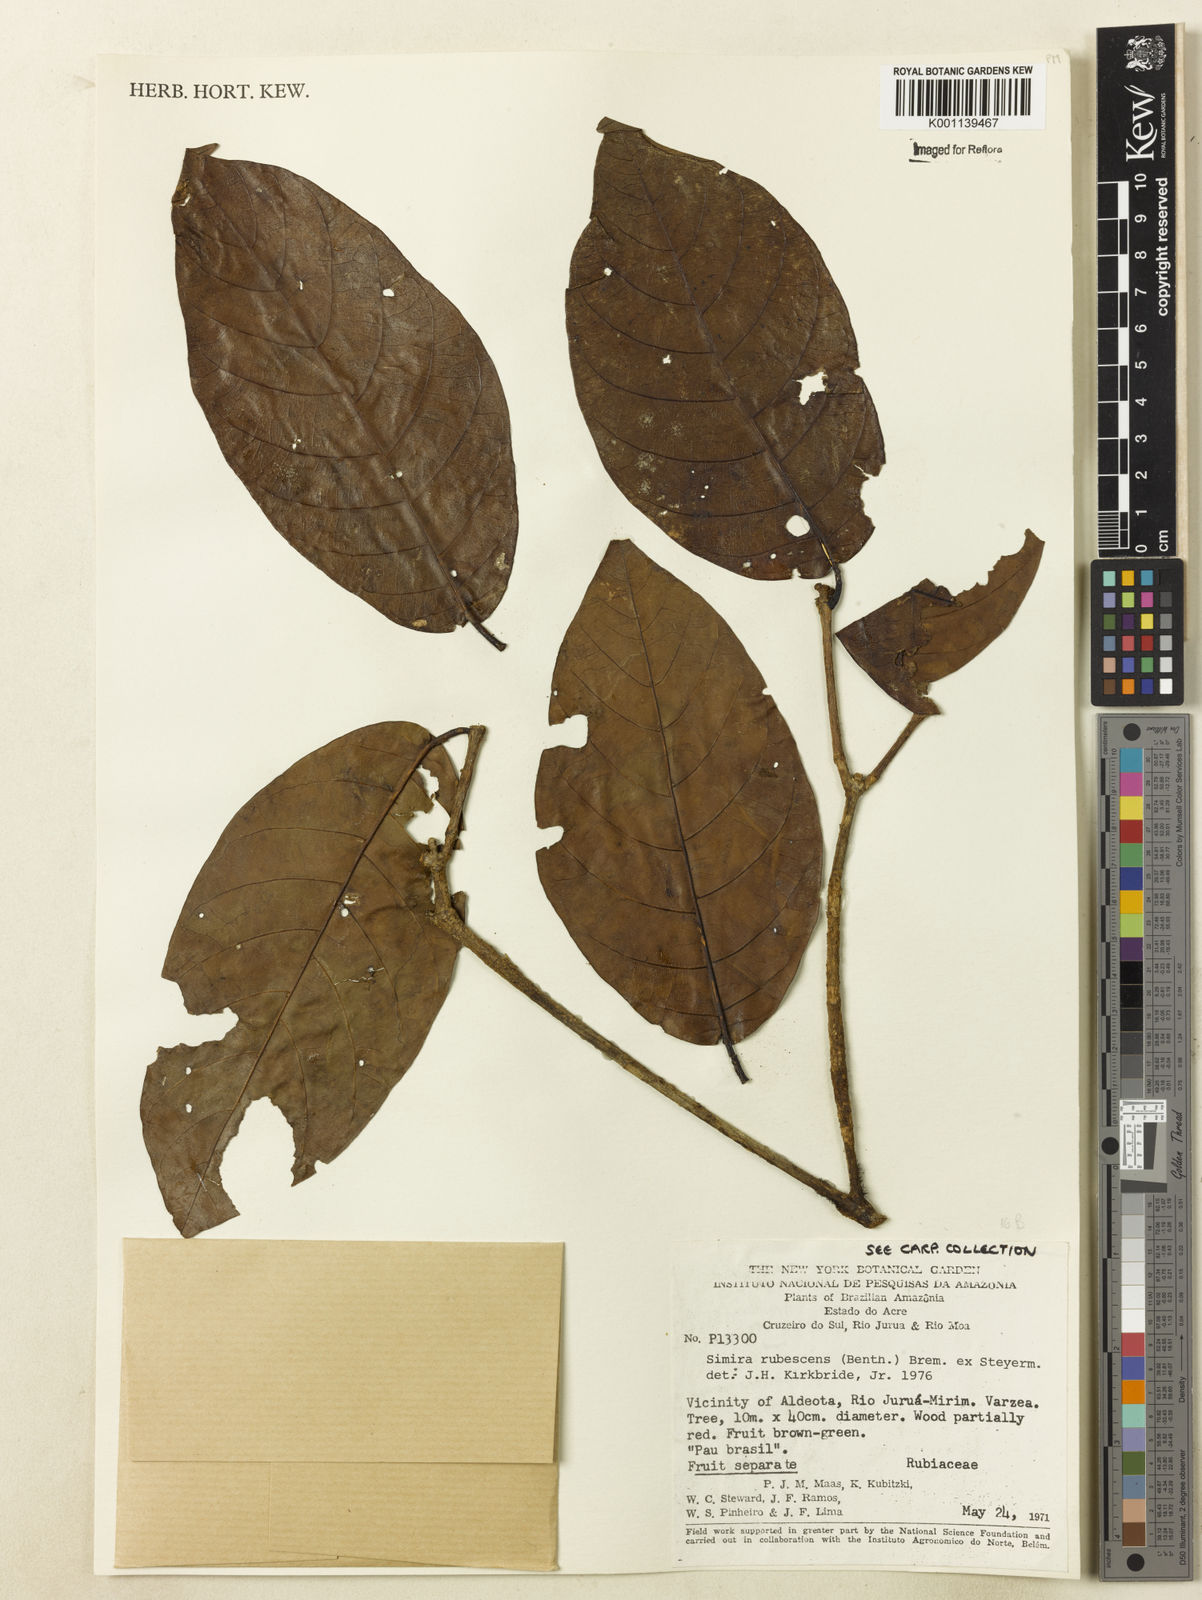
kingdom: Plantae
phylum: Tracheophyta
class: Magnoliopsida
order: Gentianales
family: Rubiaceae
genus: Simira
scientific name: Simira rubescens
